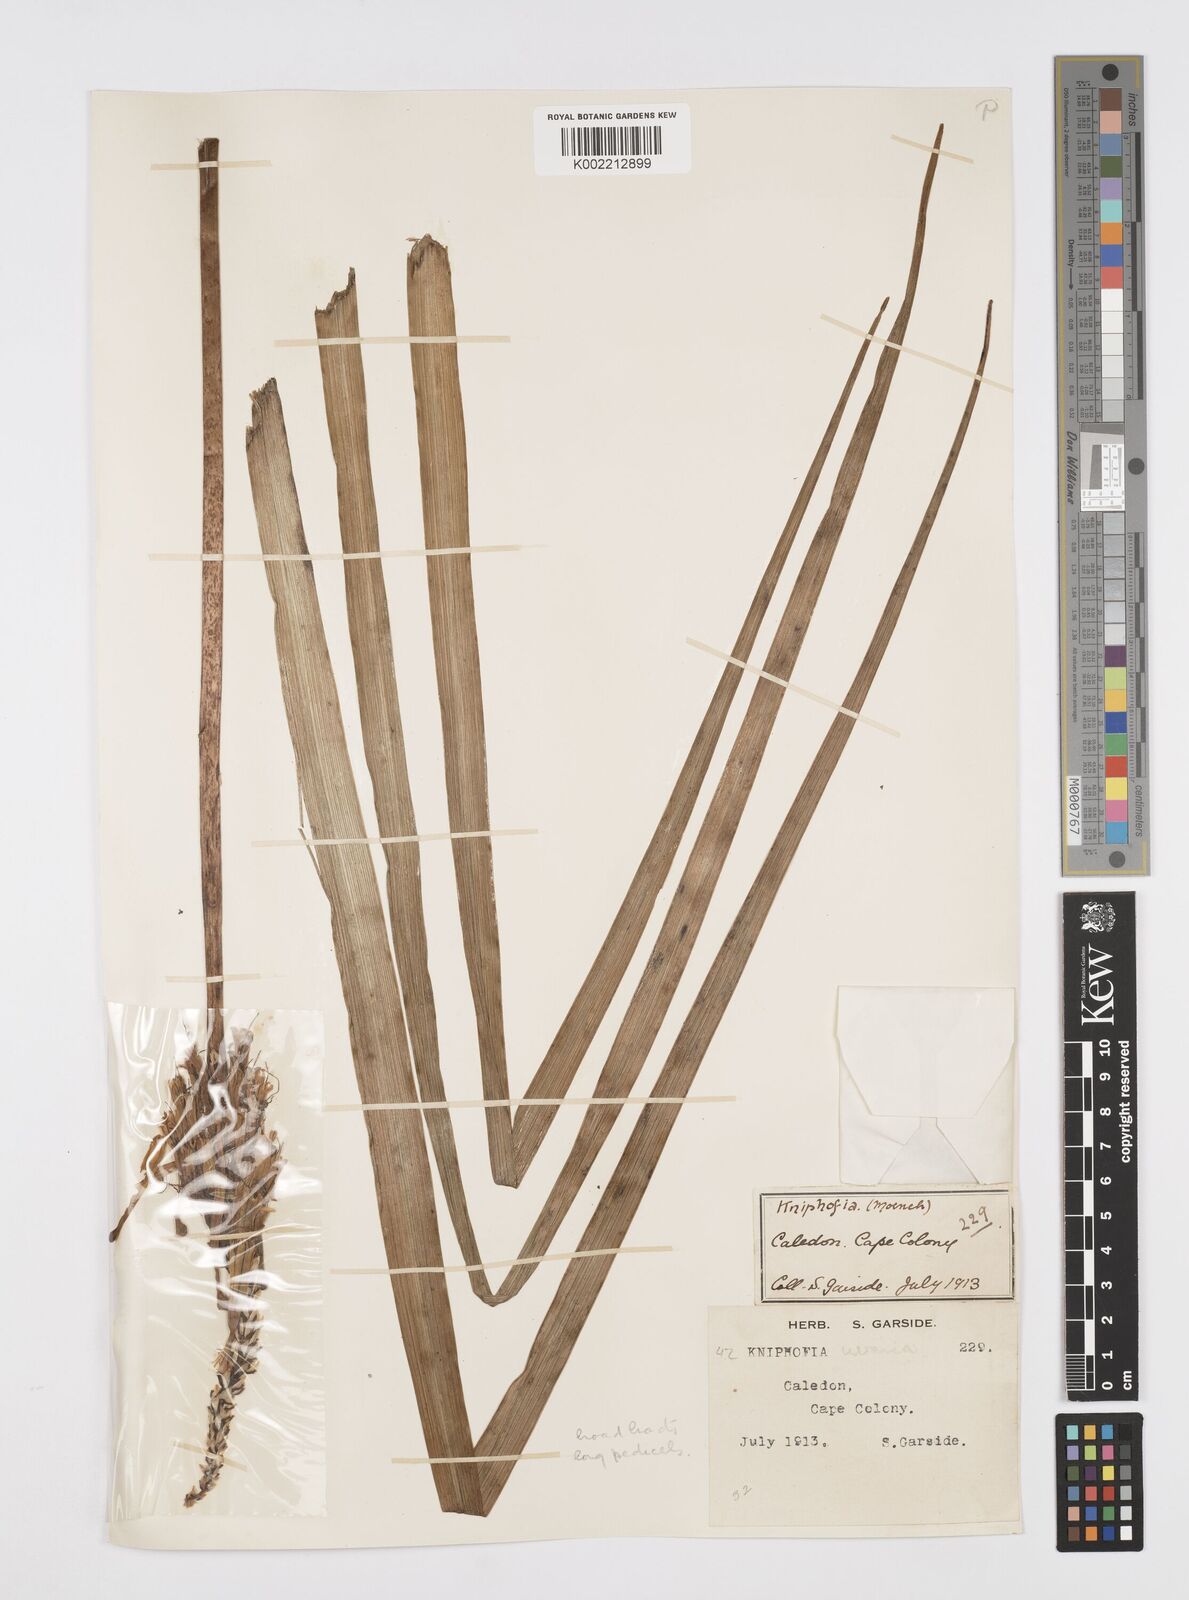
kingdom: Plantae
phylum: Tracheophyta
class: Liliopsida
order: Asparagales
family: Asphodelaceae
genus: Kniphofia
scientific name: Kniphofia uvaria
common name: Red-hot-poker
